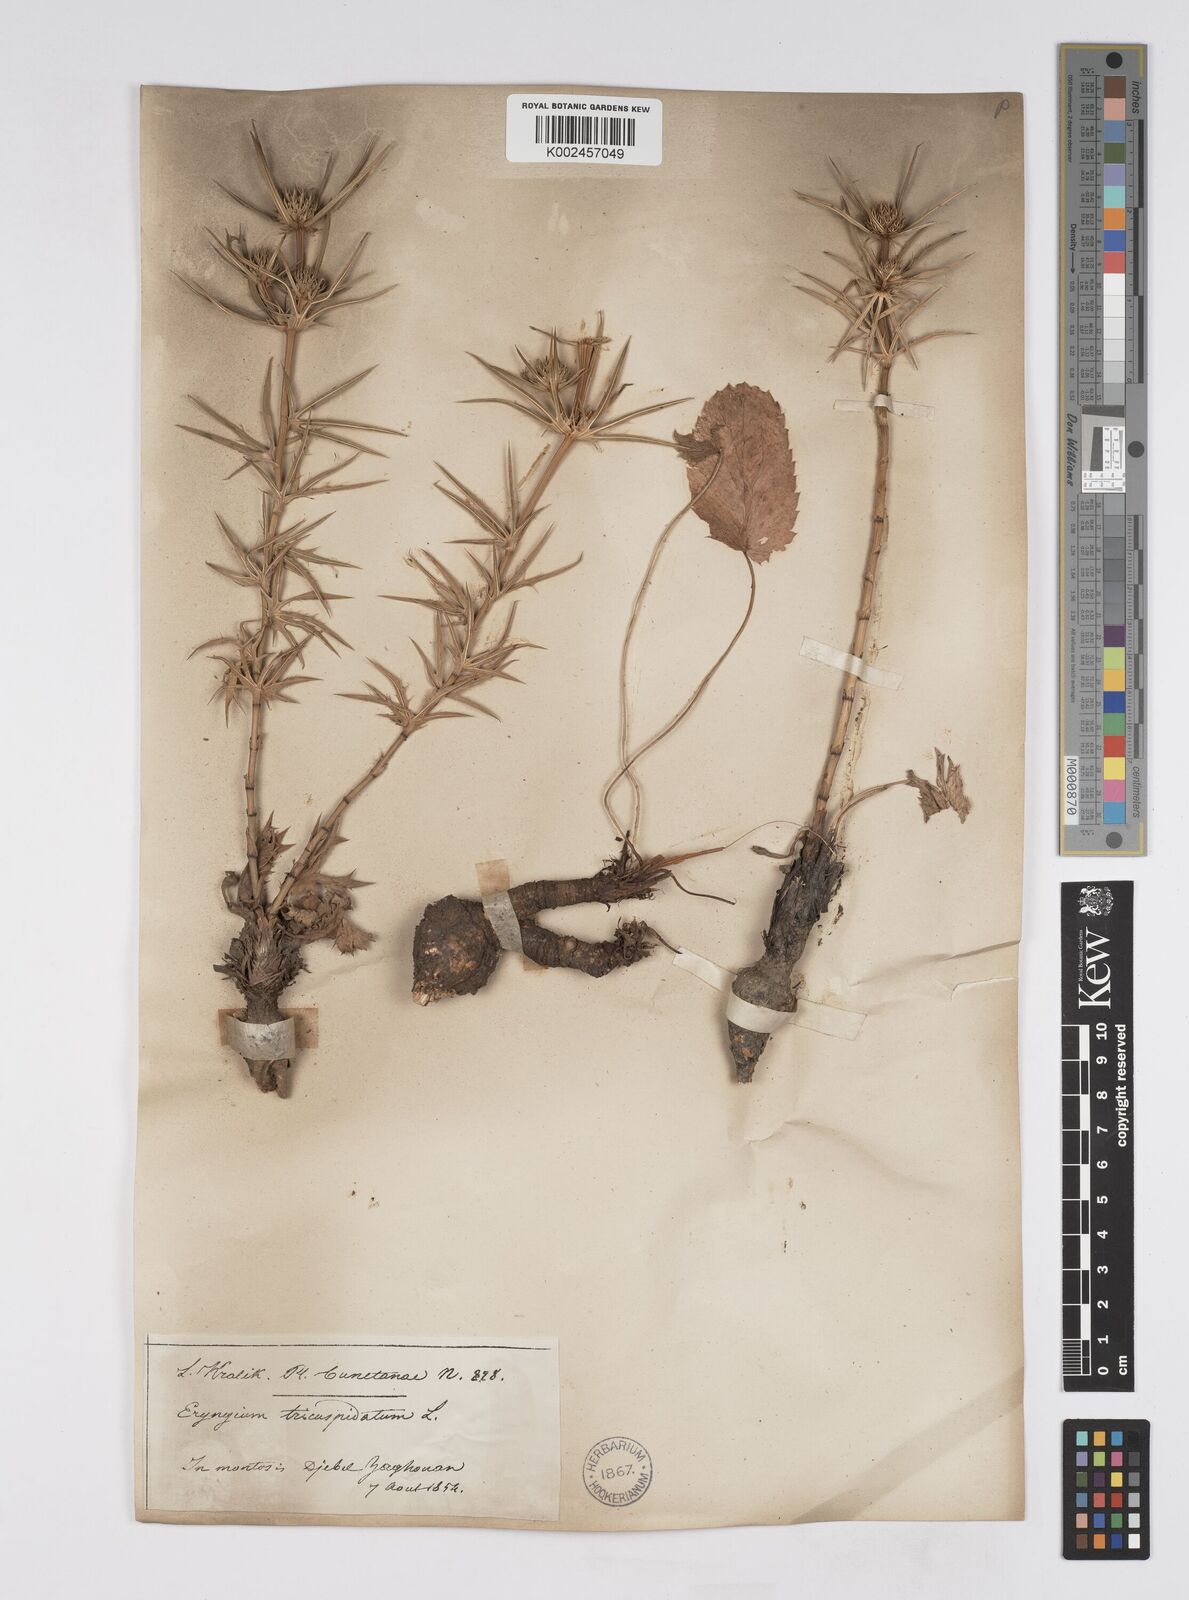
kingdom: Plantae
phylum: Tracheophyta
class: Magnoliopsida
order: Apiales
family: Apiaceae
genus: Eryngium
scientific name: Eryngium tricuspidatum
